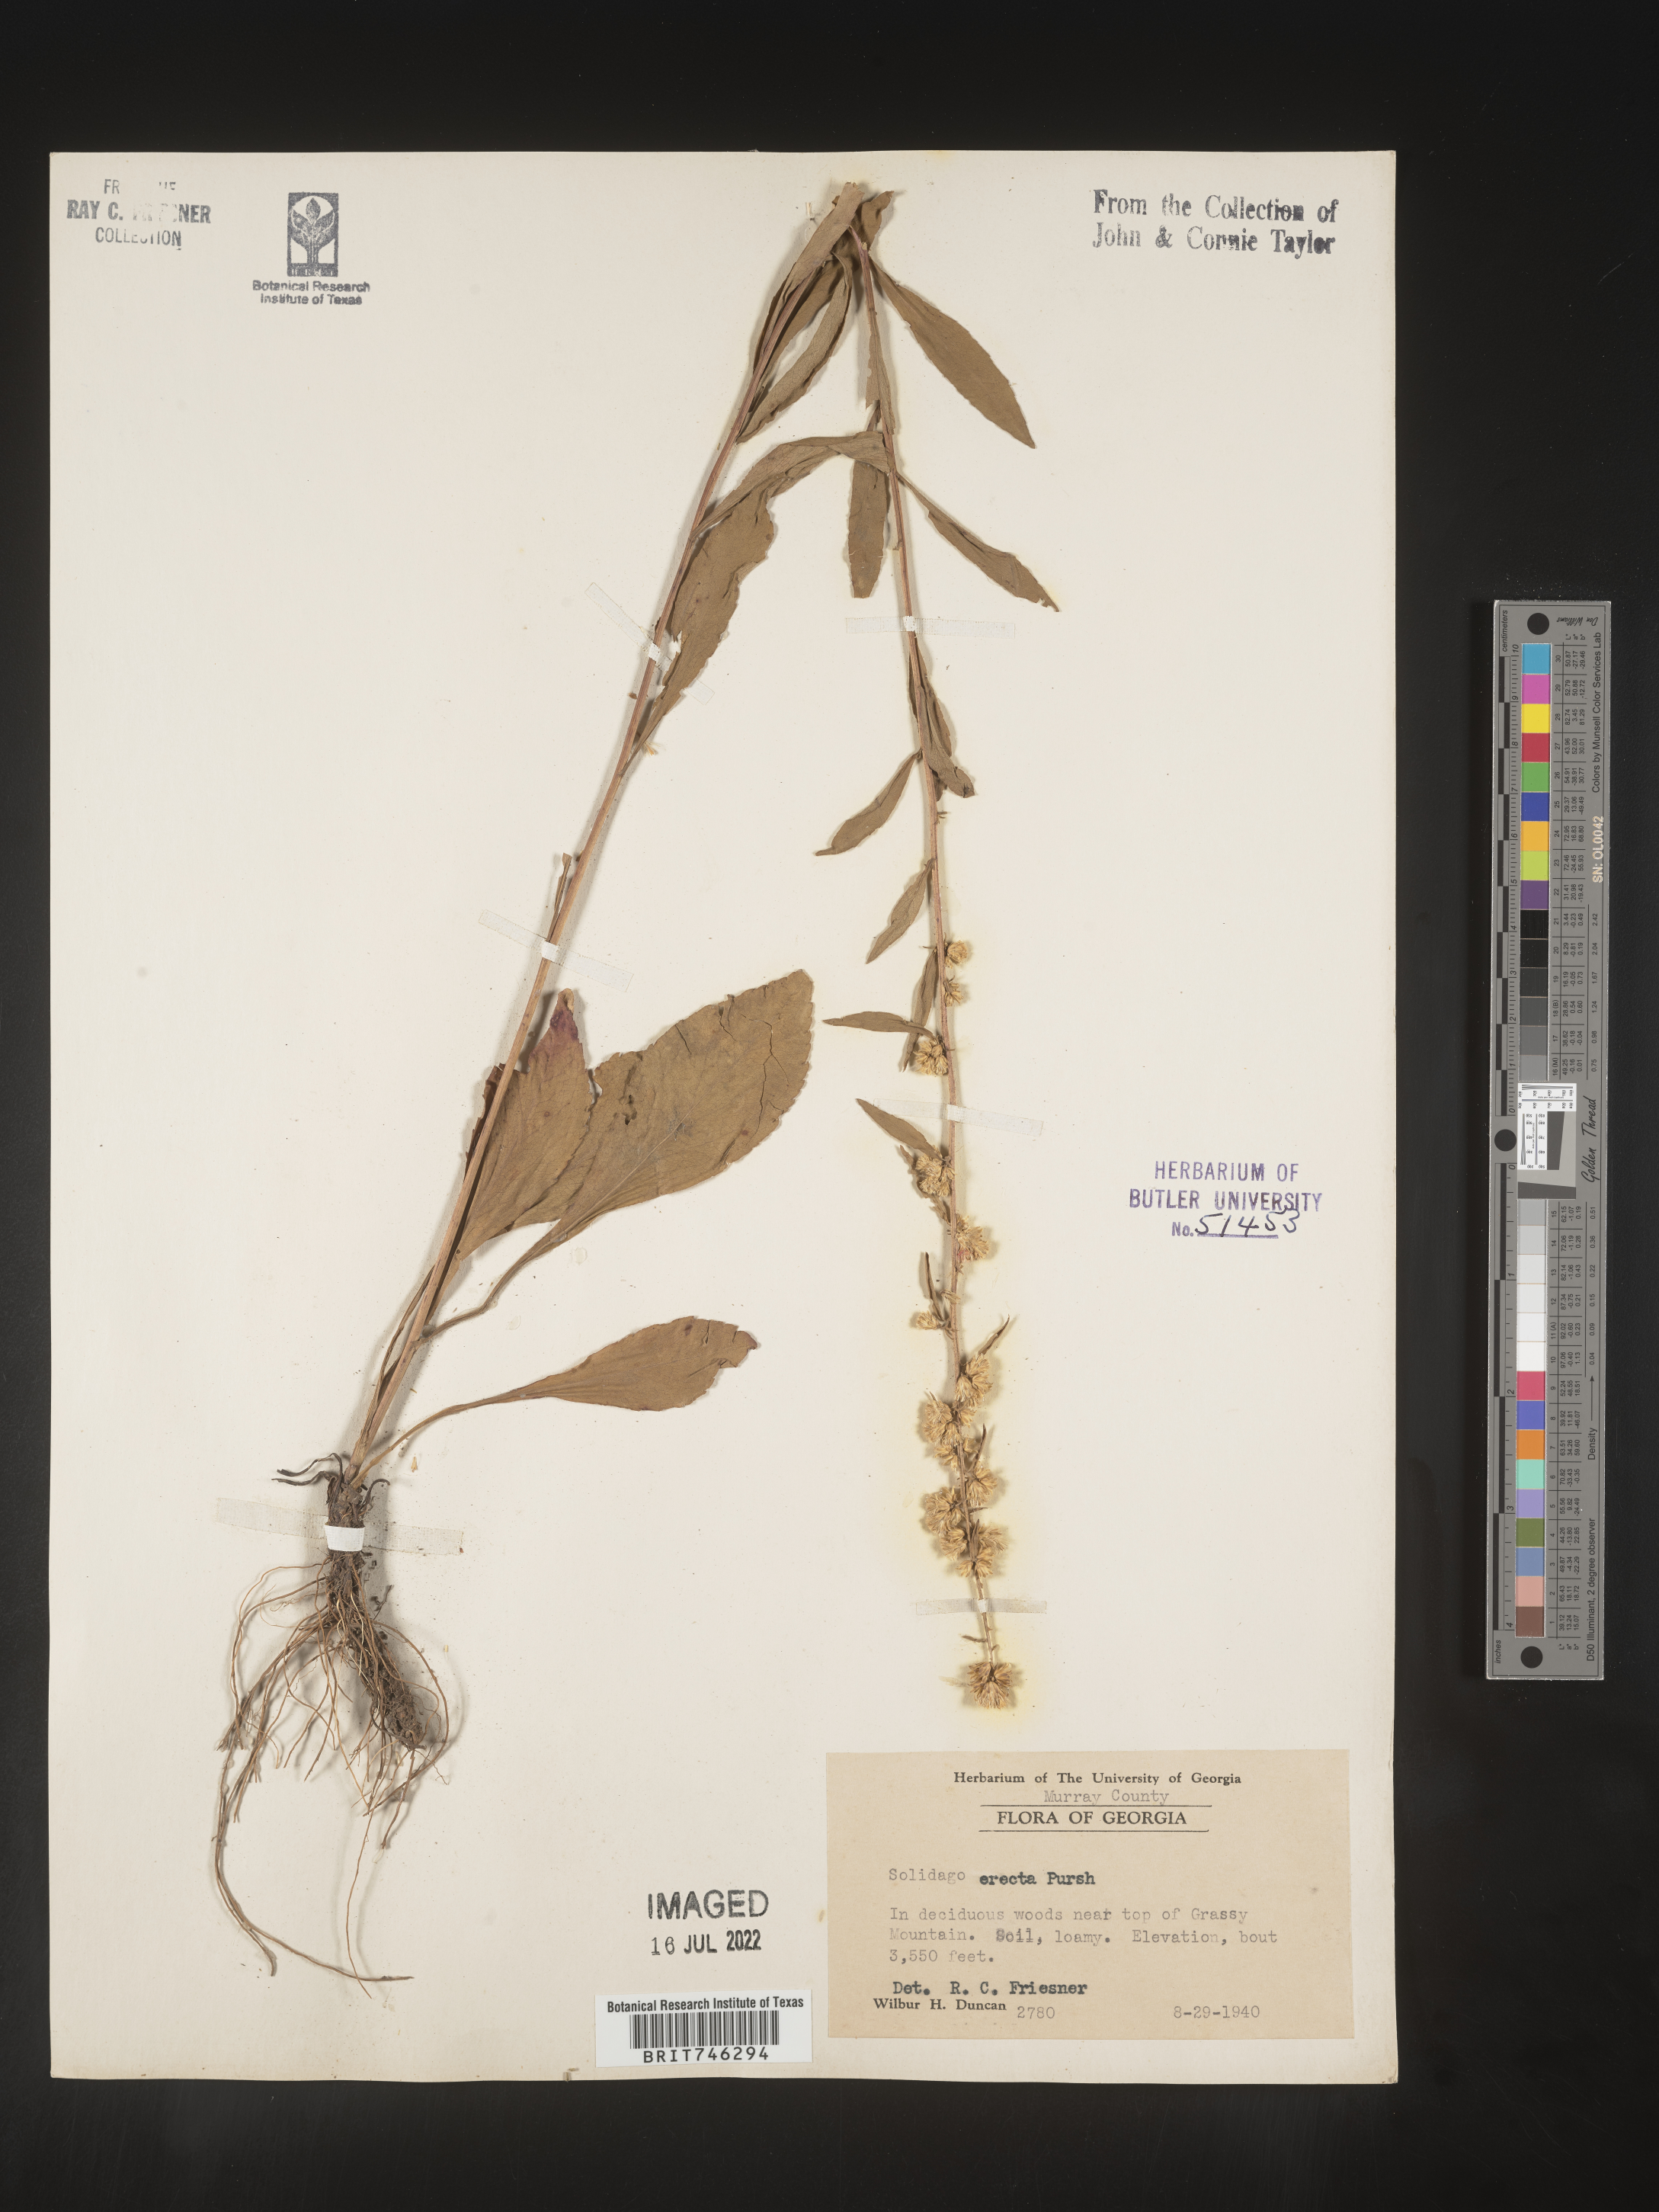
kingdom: Plantae
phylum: Tracheophyta
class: Magnoliopsida
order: Asterales
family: Asteraceae
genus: Solidago
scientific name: Solidago erecta
